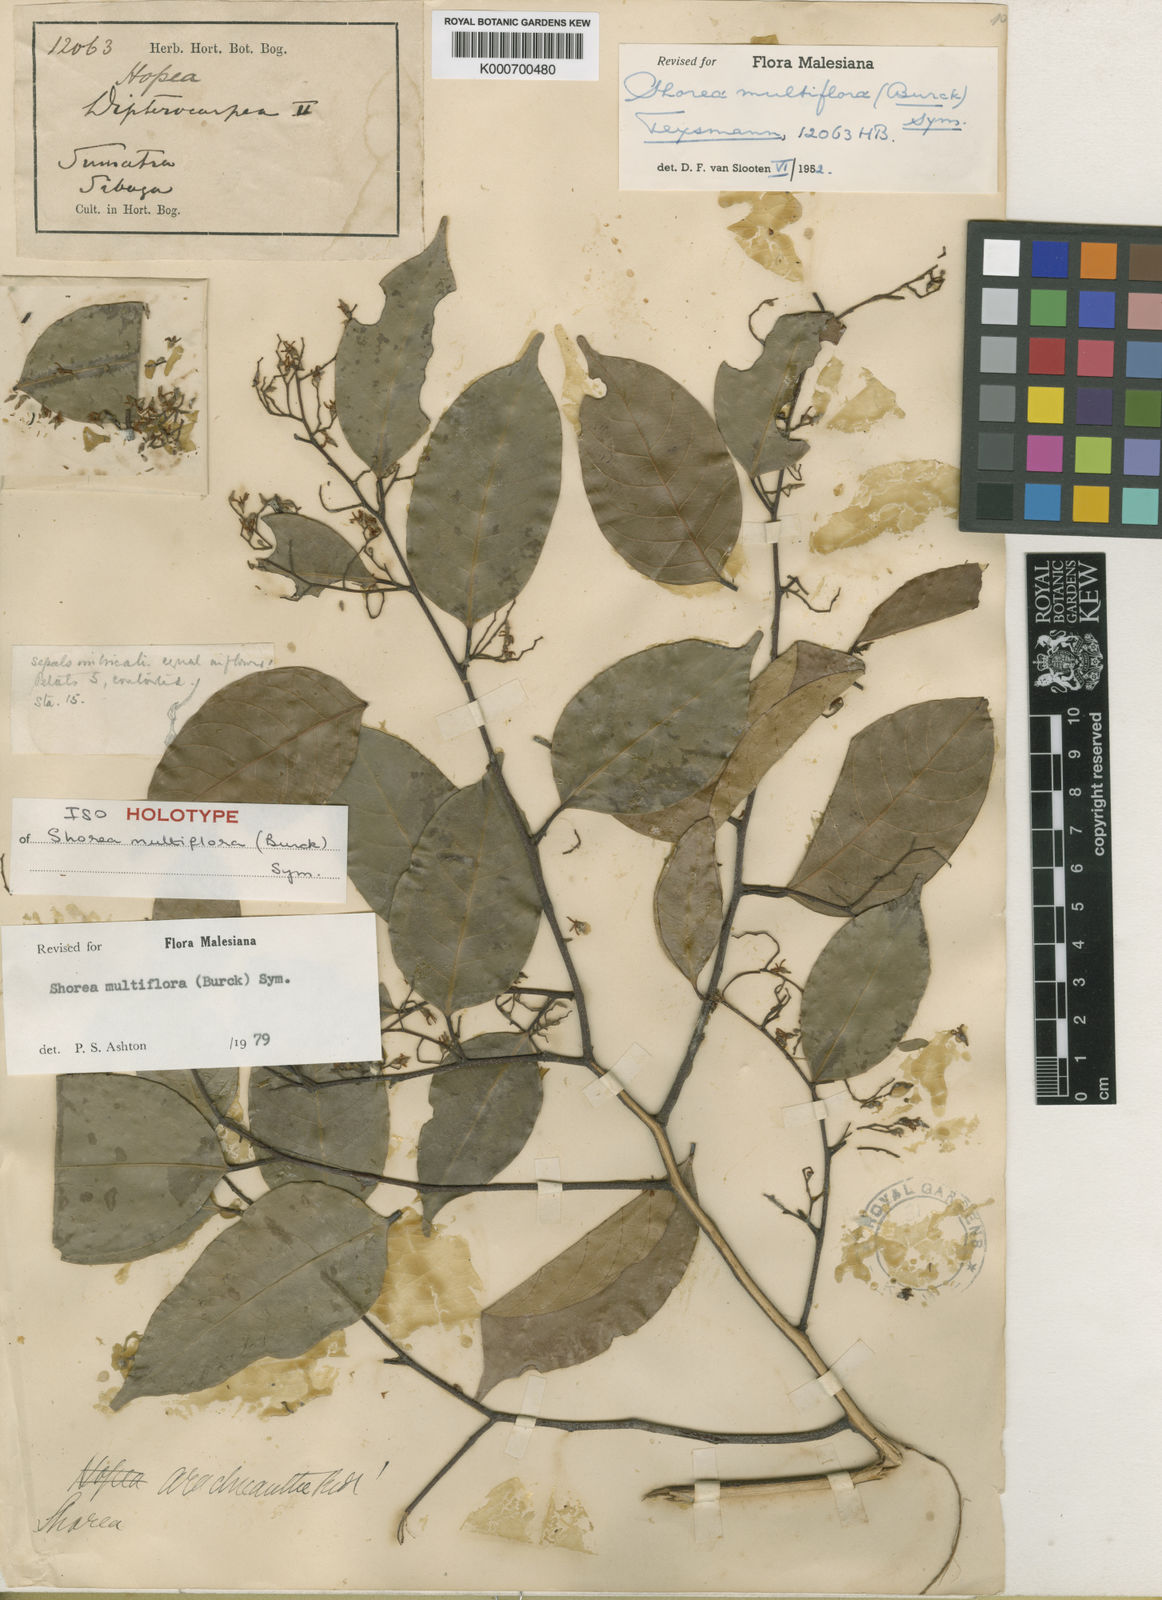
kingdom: Plantae
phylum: Tracheophyta
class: Magnoliopsida
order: Malvales
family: Dipterocarpaceae
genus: Shorea
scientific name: Shorea multiflora
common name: Yellow meranti
